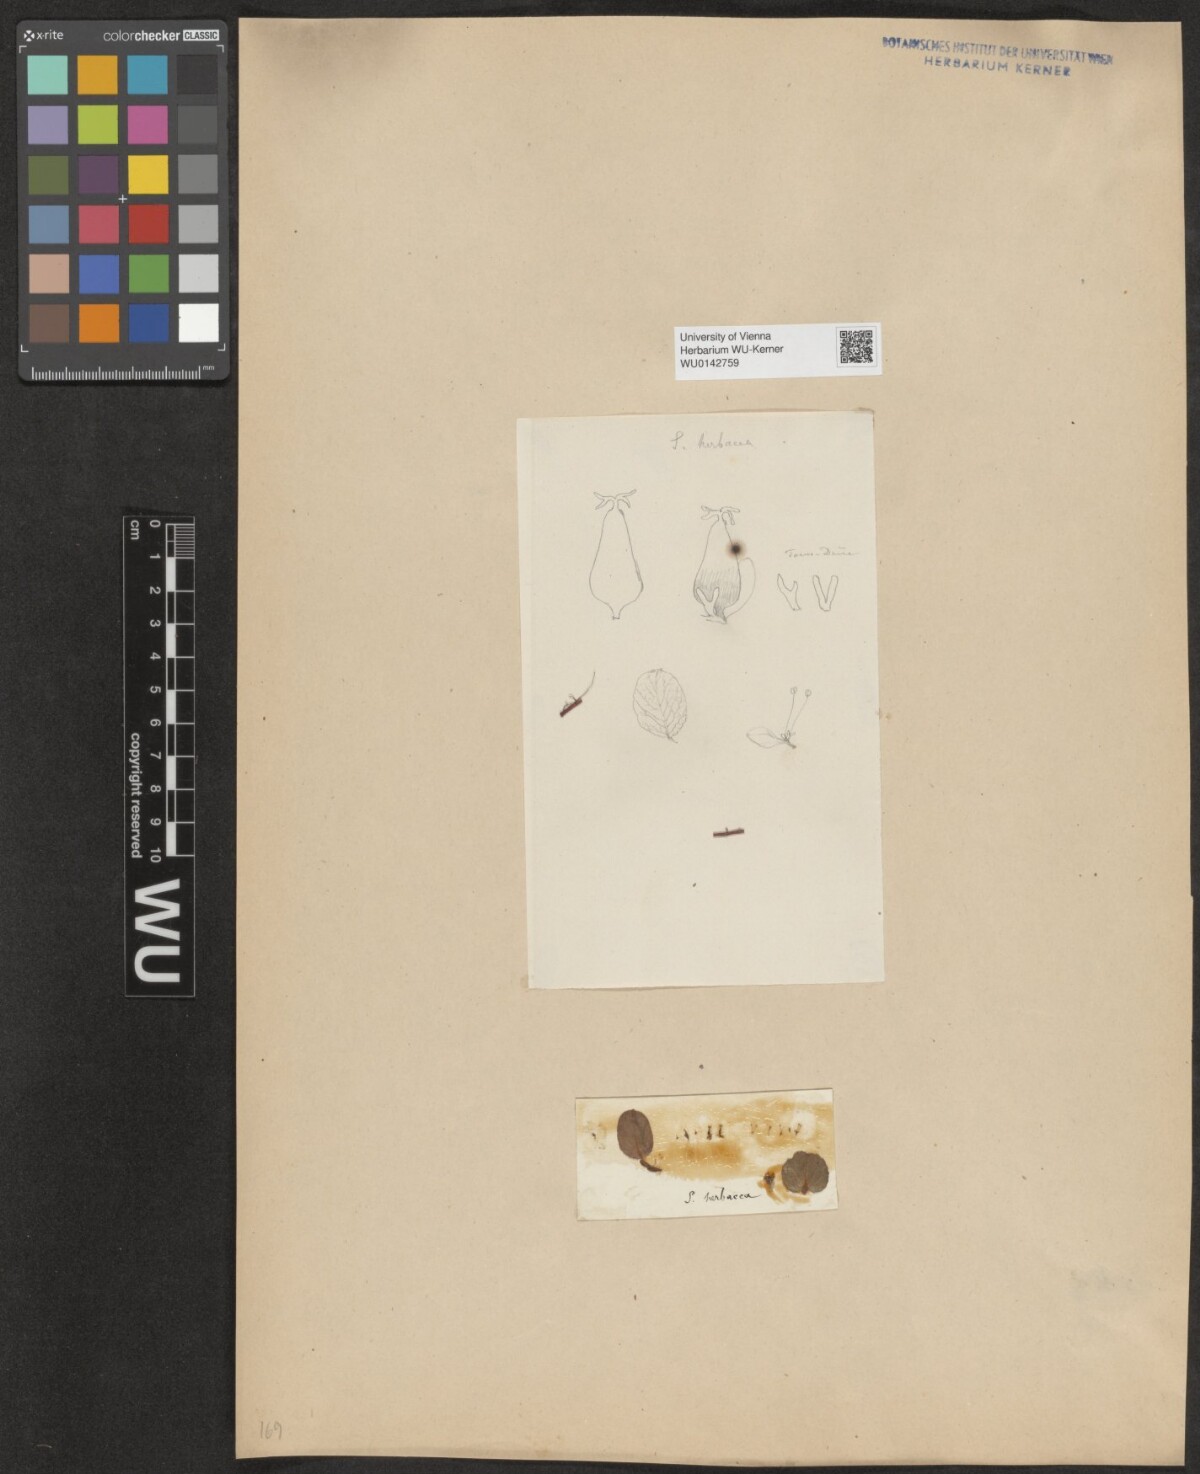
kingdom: Plantae
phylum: Tracheophyta
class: Magnoliopsida
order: Malpighiales
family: Salicaceae
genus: Salix
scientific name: Salix herbacea
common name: Dwarf willow
